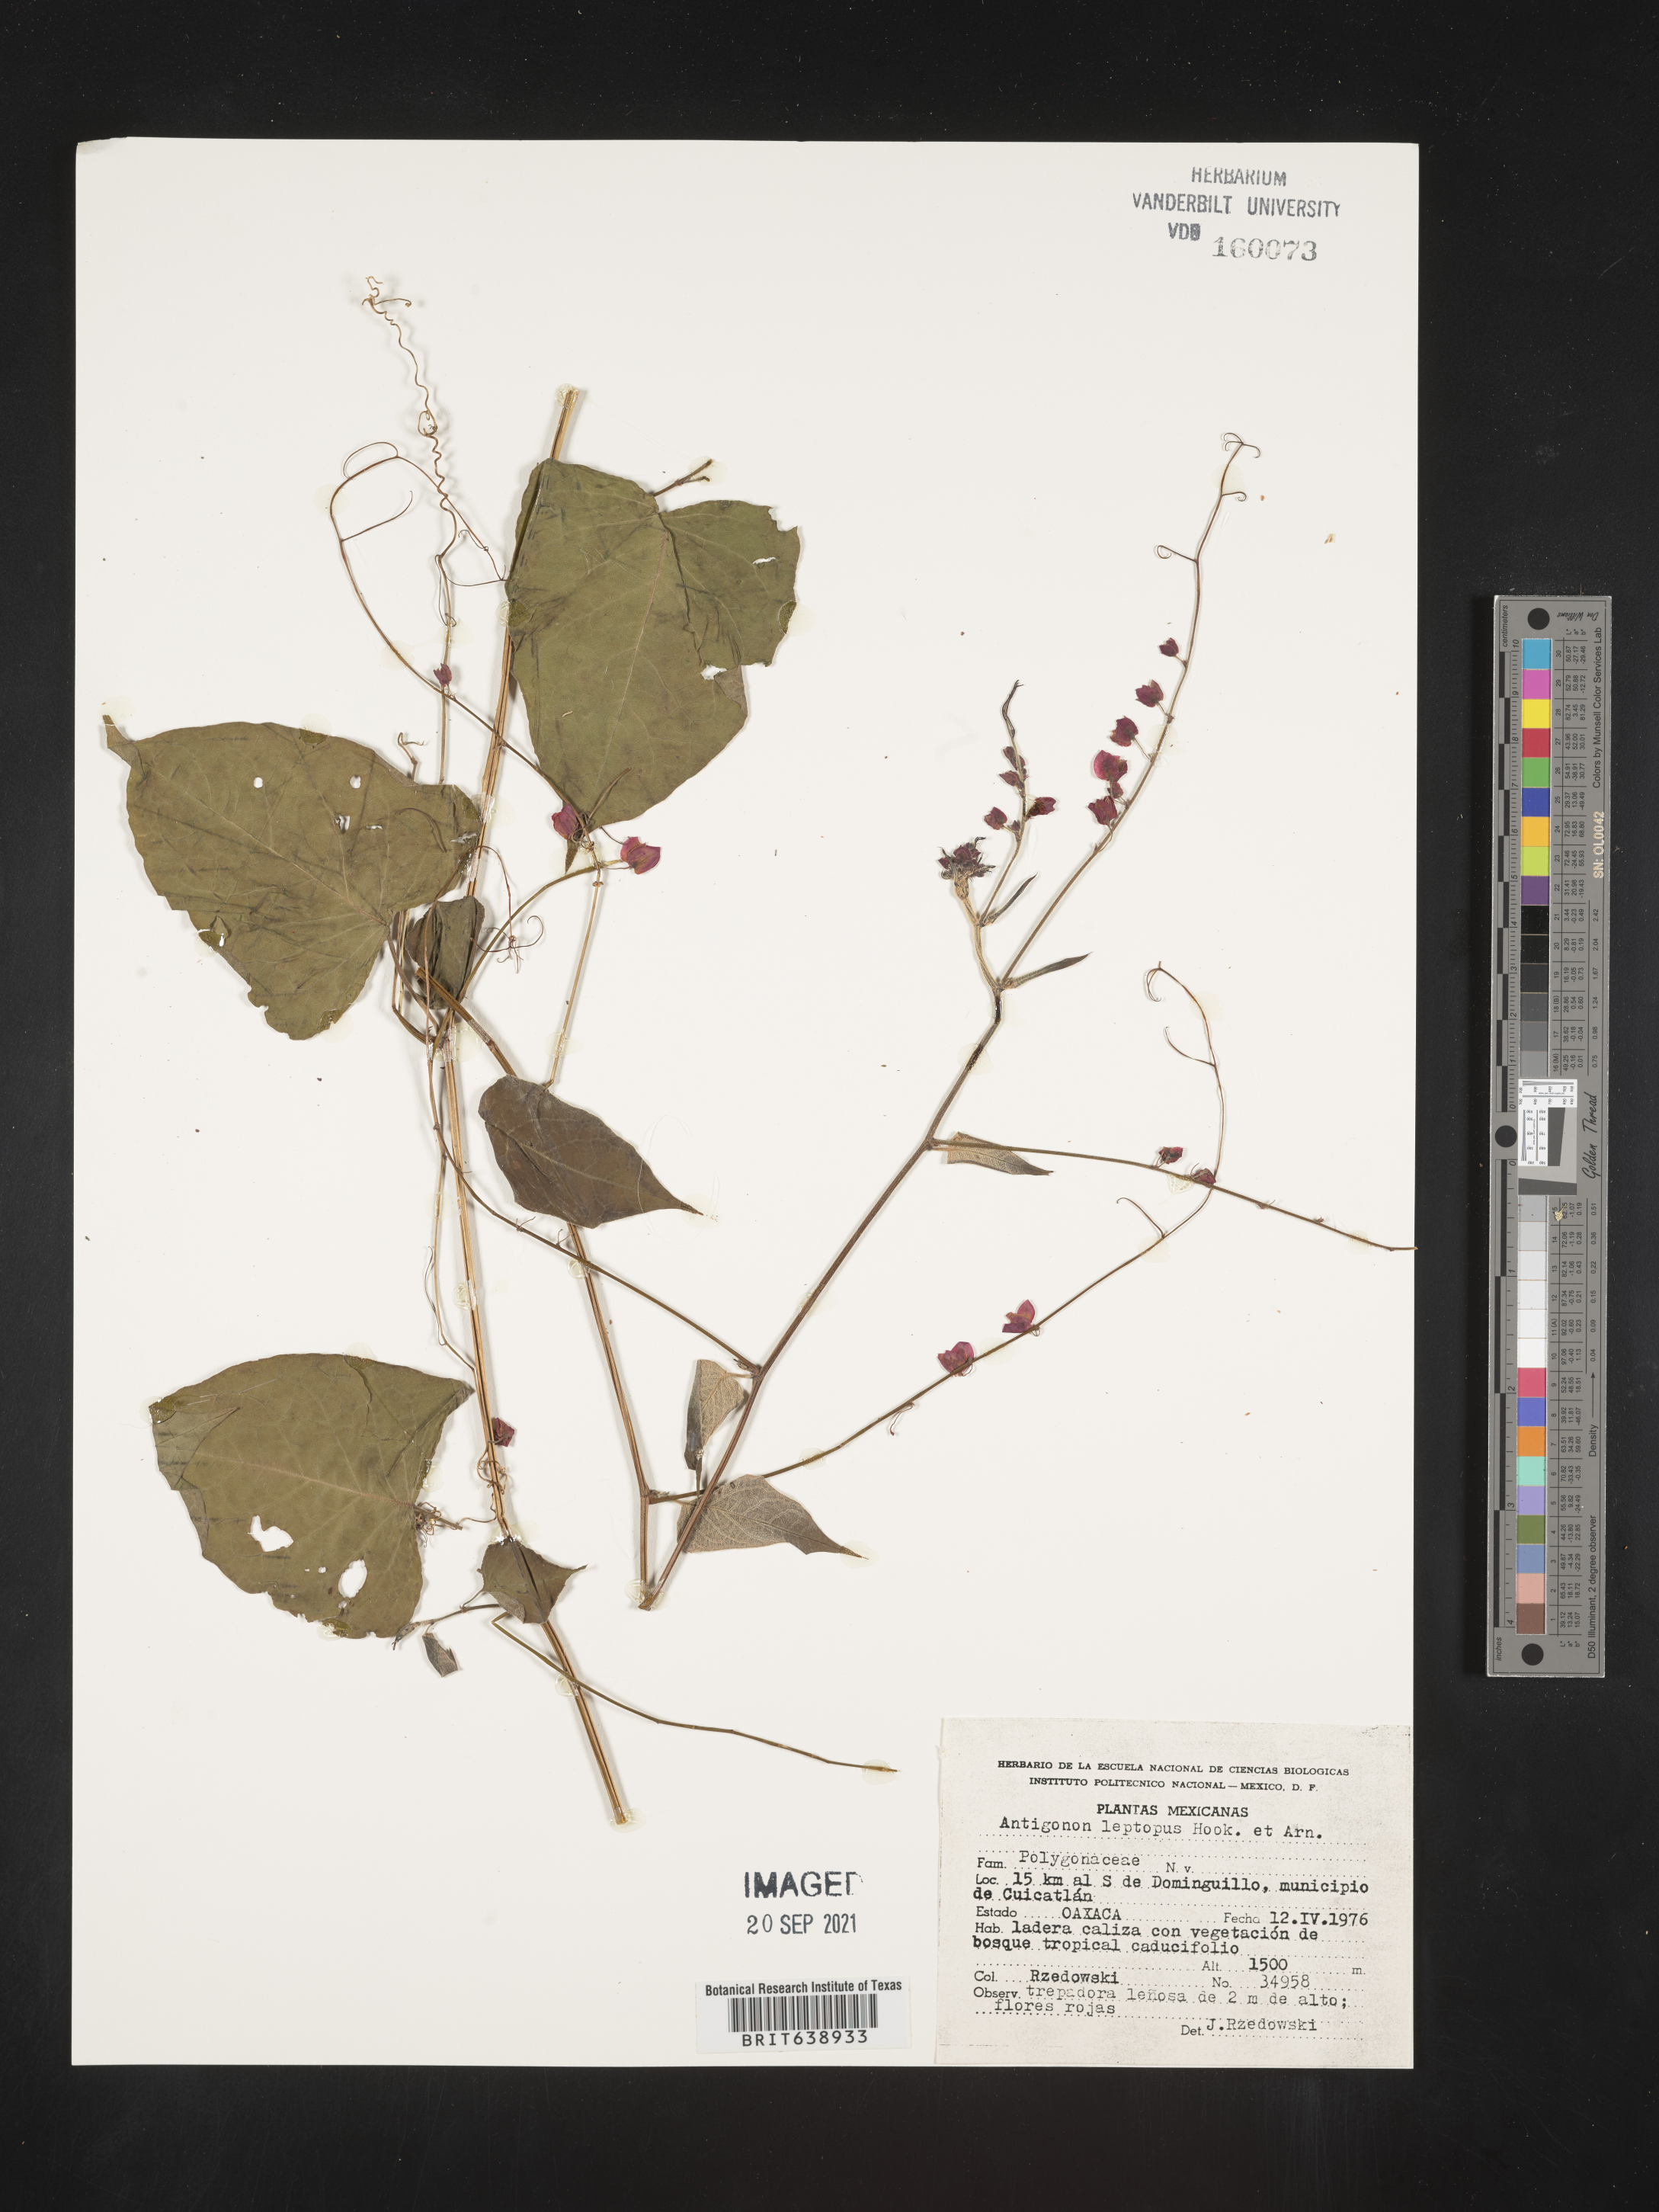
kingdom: Plantae
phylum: Tracheophyta
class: Magnoliopsida
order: Caryophyllales
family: Polygonaceae
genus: Antigonon
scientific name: Antigonon
